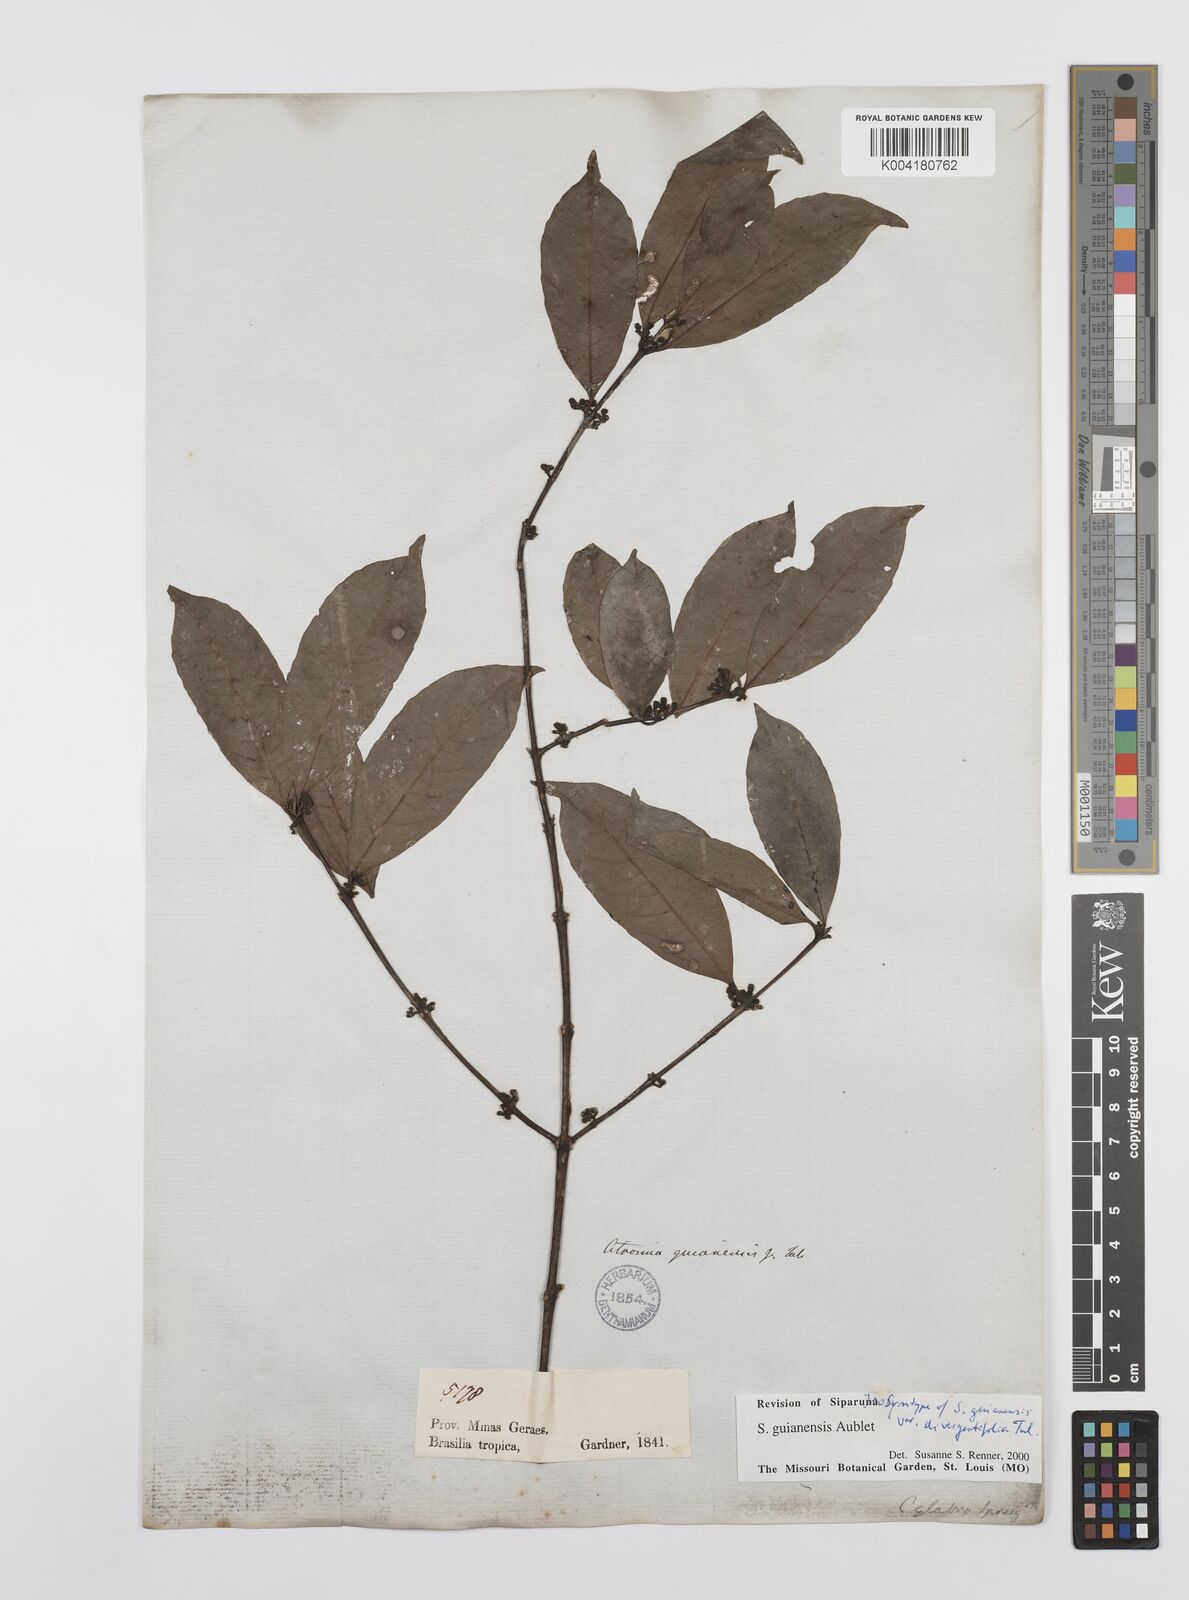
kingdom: Plantae
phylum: Tracheophyta
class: Magnoliopsida
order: Laurales
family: Siparunaceae
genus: Siparuna
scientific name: Siparuna guianensis
